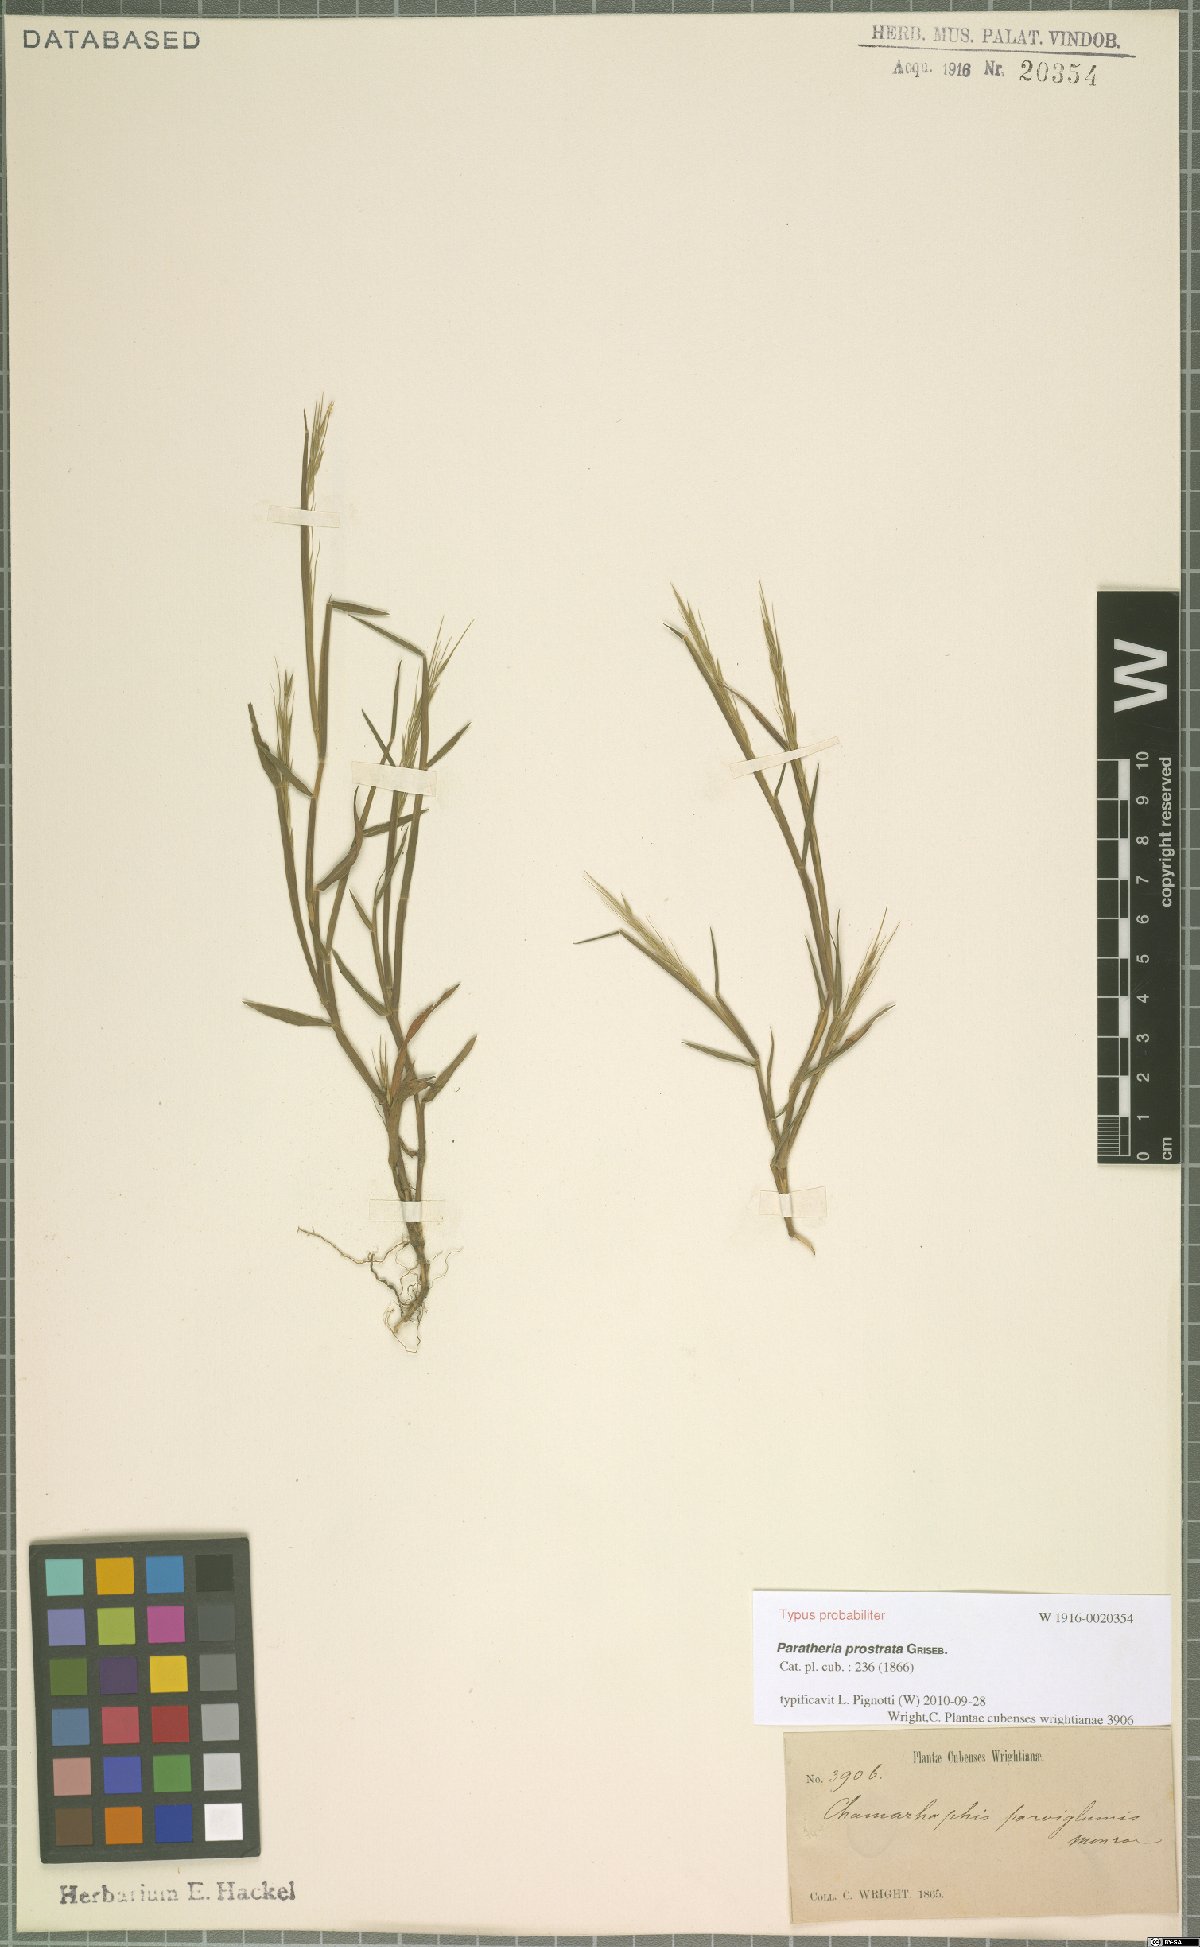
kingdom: Plantae
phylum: Tracheophyta
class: Liliopsida
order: Poales
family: Poaceae
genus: Paratheria
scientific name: Paratheria prostrata
